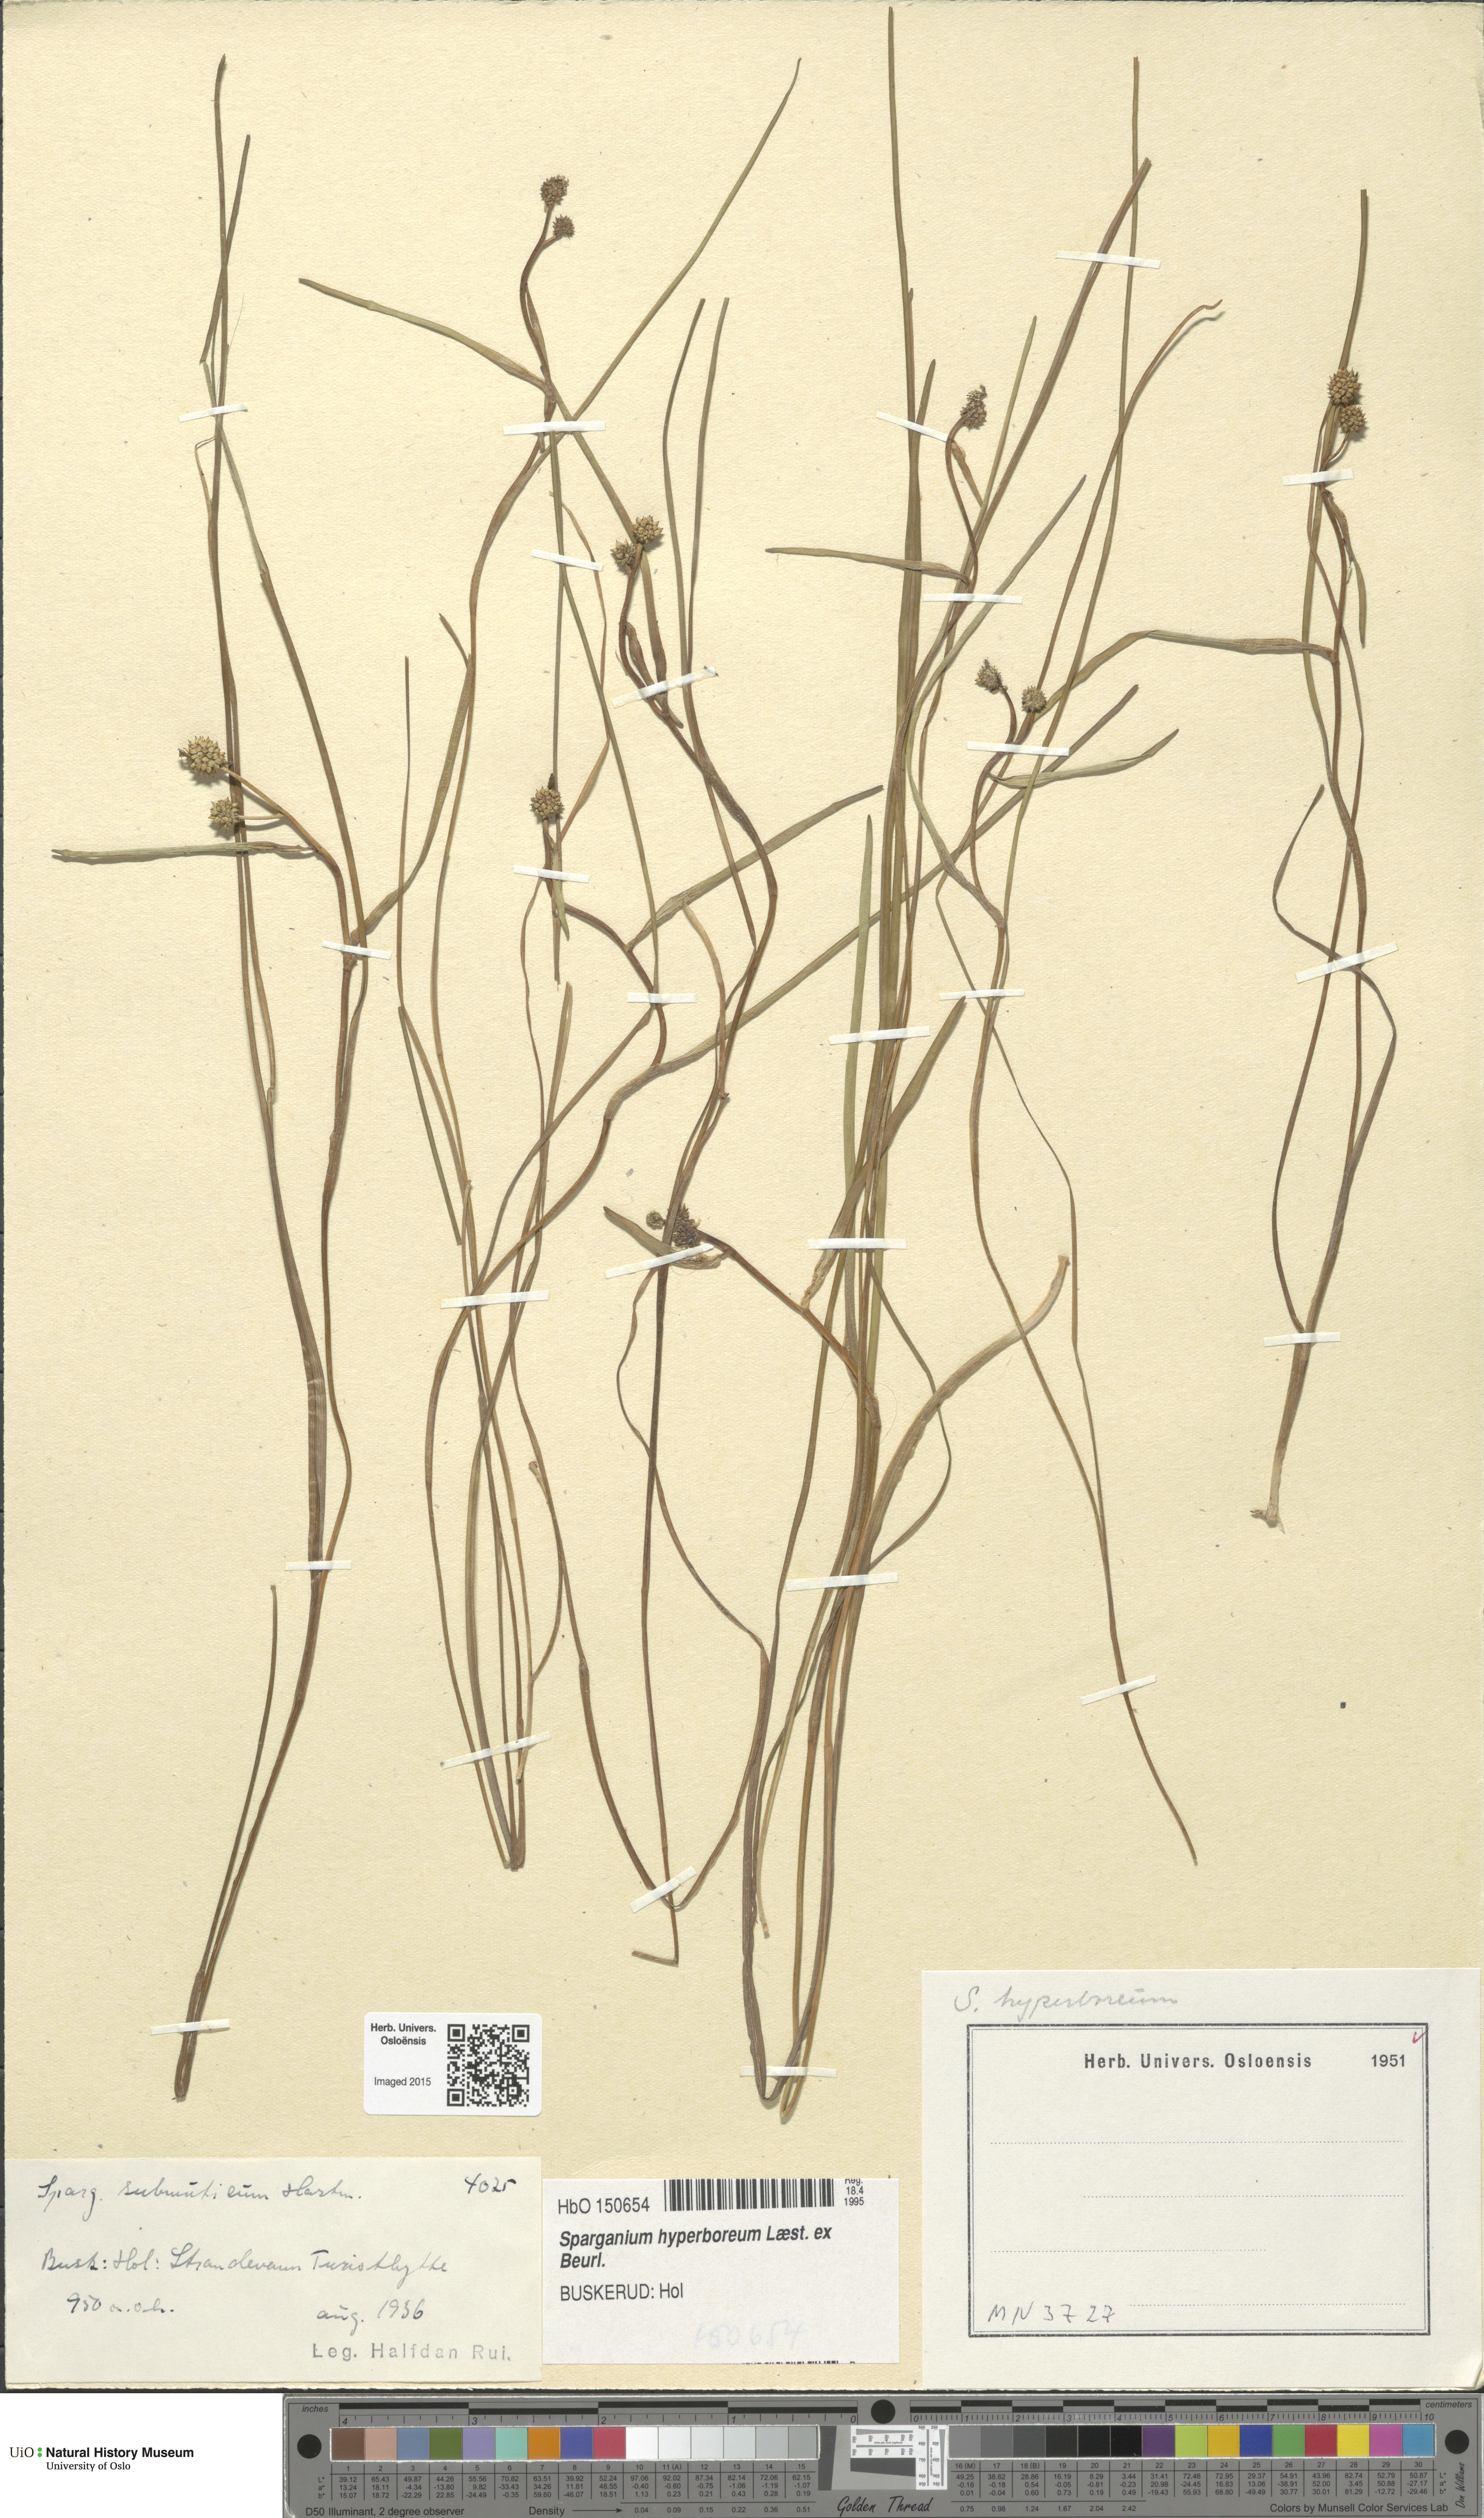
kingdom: Plantae
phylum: Tracheophyta
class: Liliopsida
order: Poales
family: Typhaceae
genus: Sparganium
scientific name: Sparganium hyperboreum
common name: Arctic burreed
